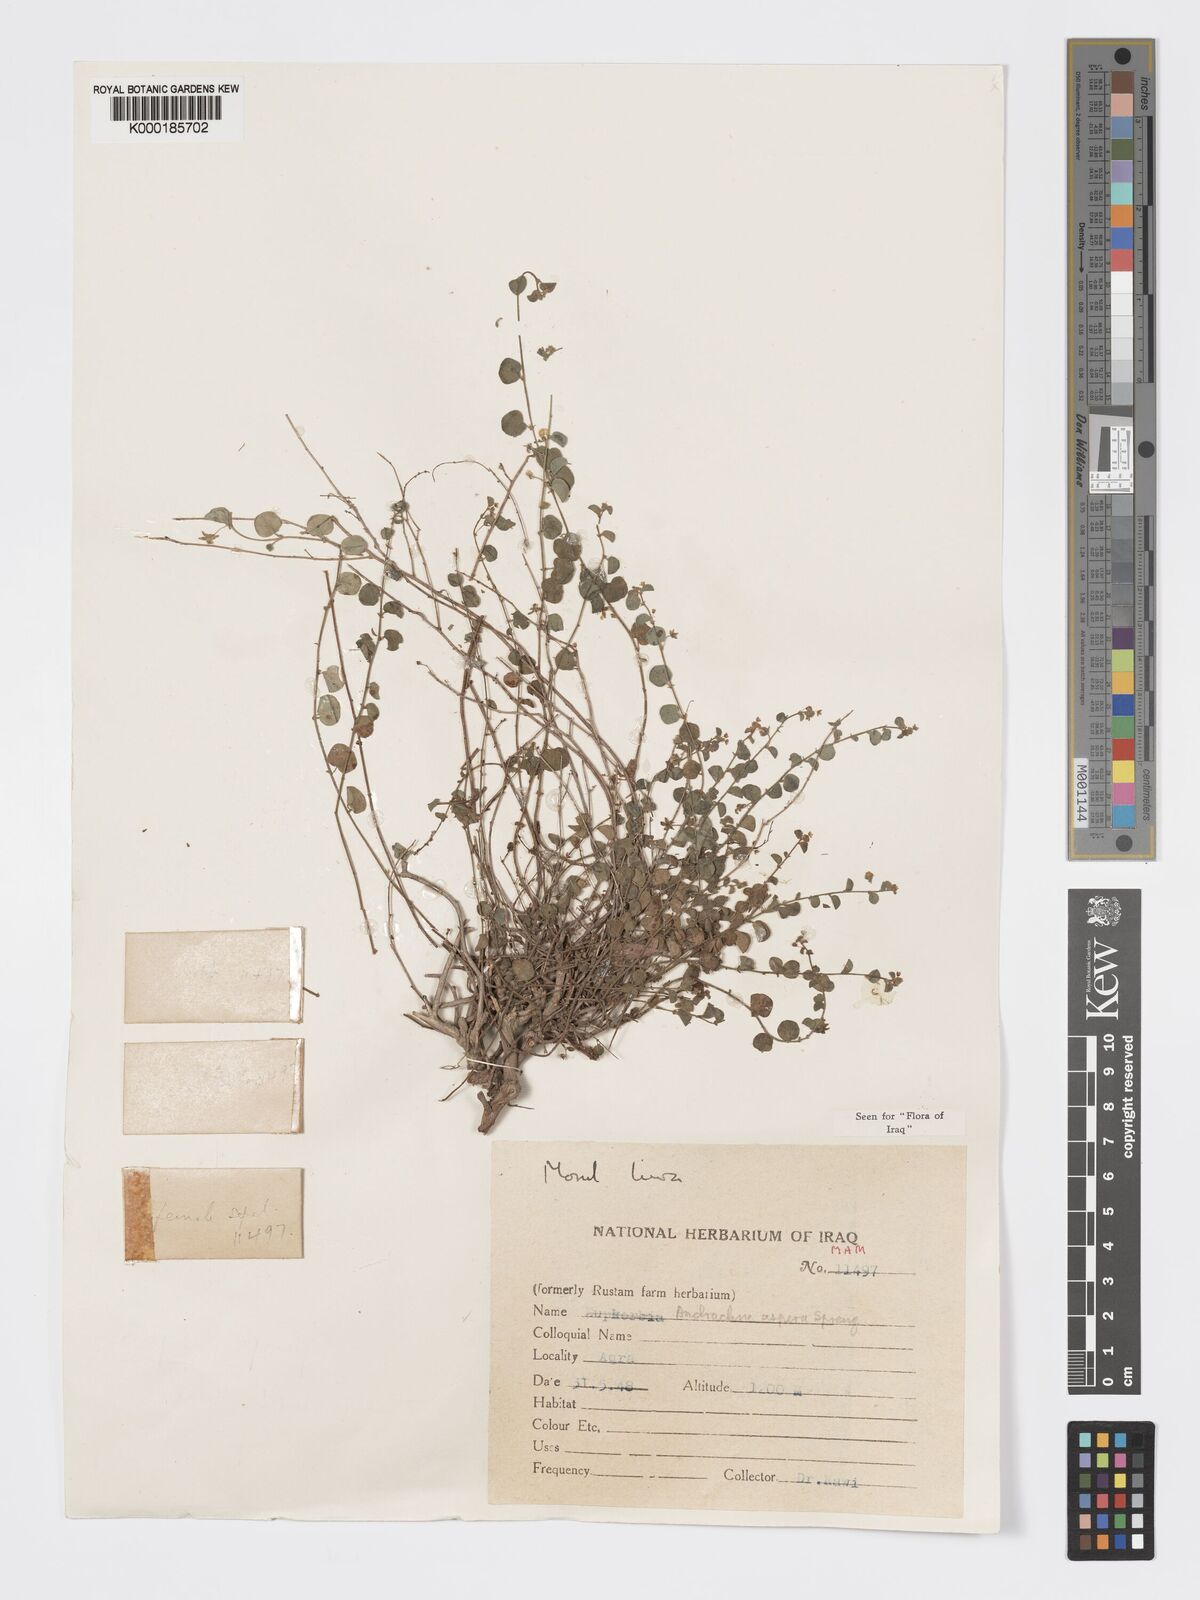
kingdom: Plantae
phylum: Tracheophyta
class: Magnoliopsida
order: Malpighiales
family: Phyllanthaceae
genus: Andrachne
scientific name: Andrachne aspera
